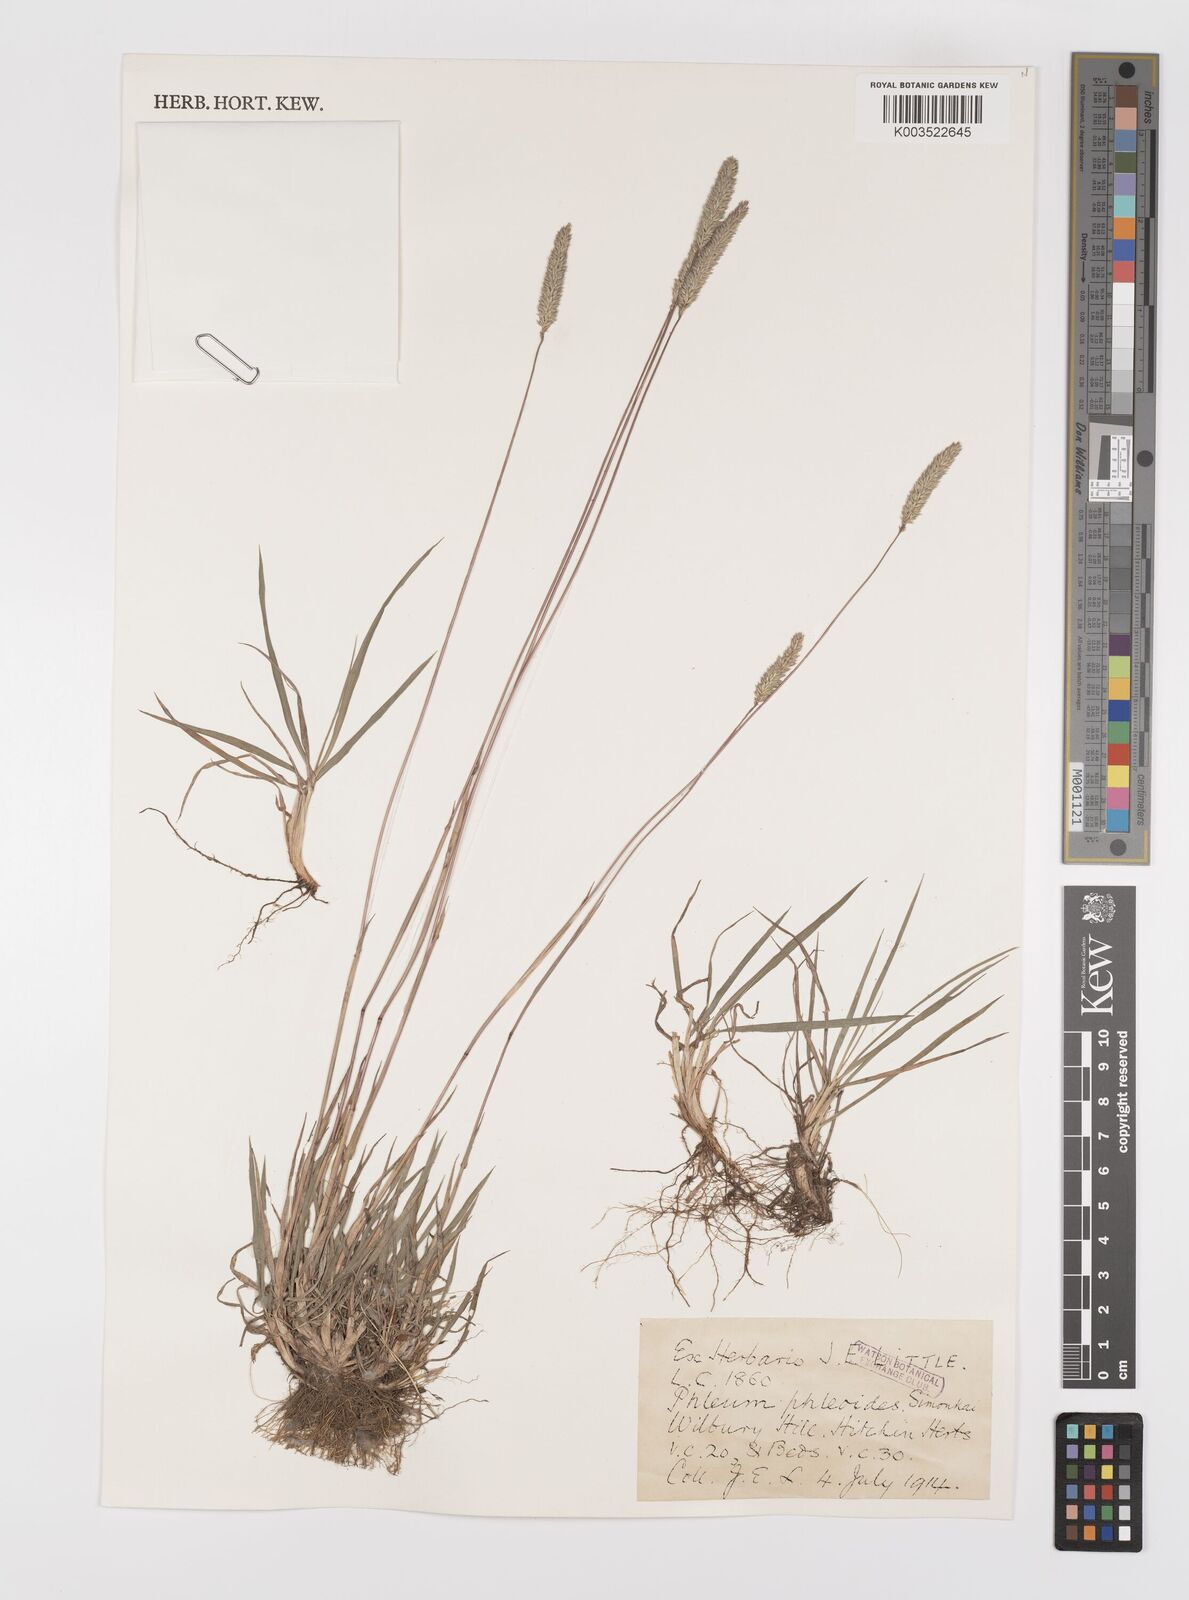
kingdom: Plantae
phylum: Tracheophyta
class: Liliopsida
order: Poales
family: Poaceae
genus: Phleum
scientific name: Phleum phleoides
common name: Purple-stem cat's-tail
